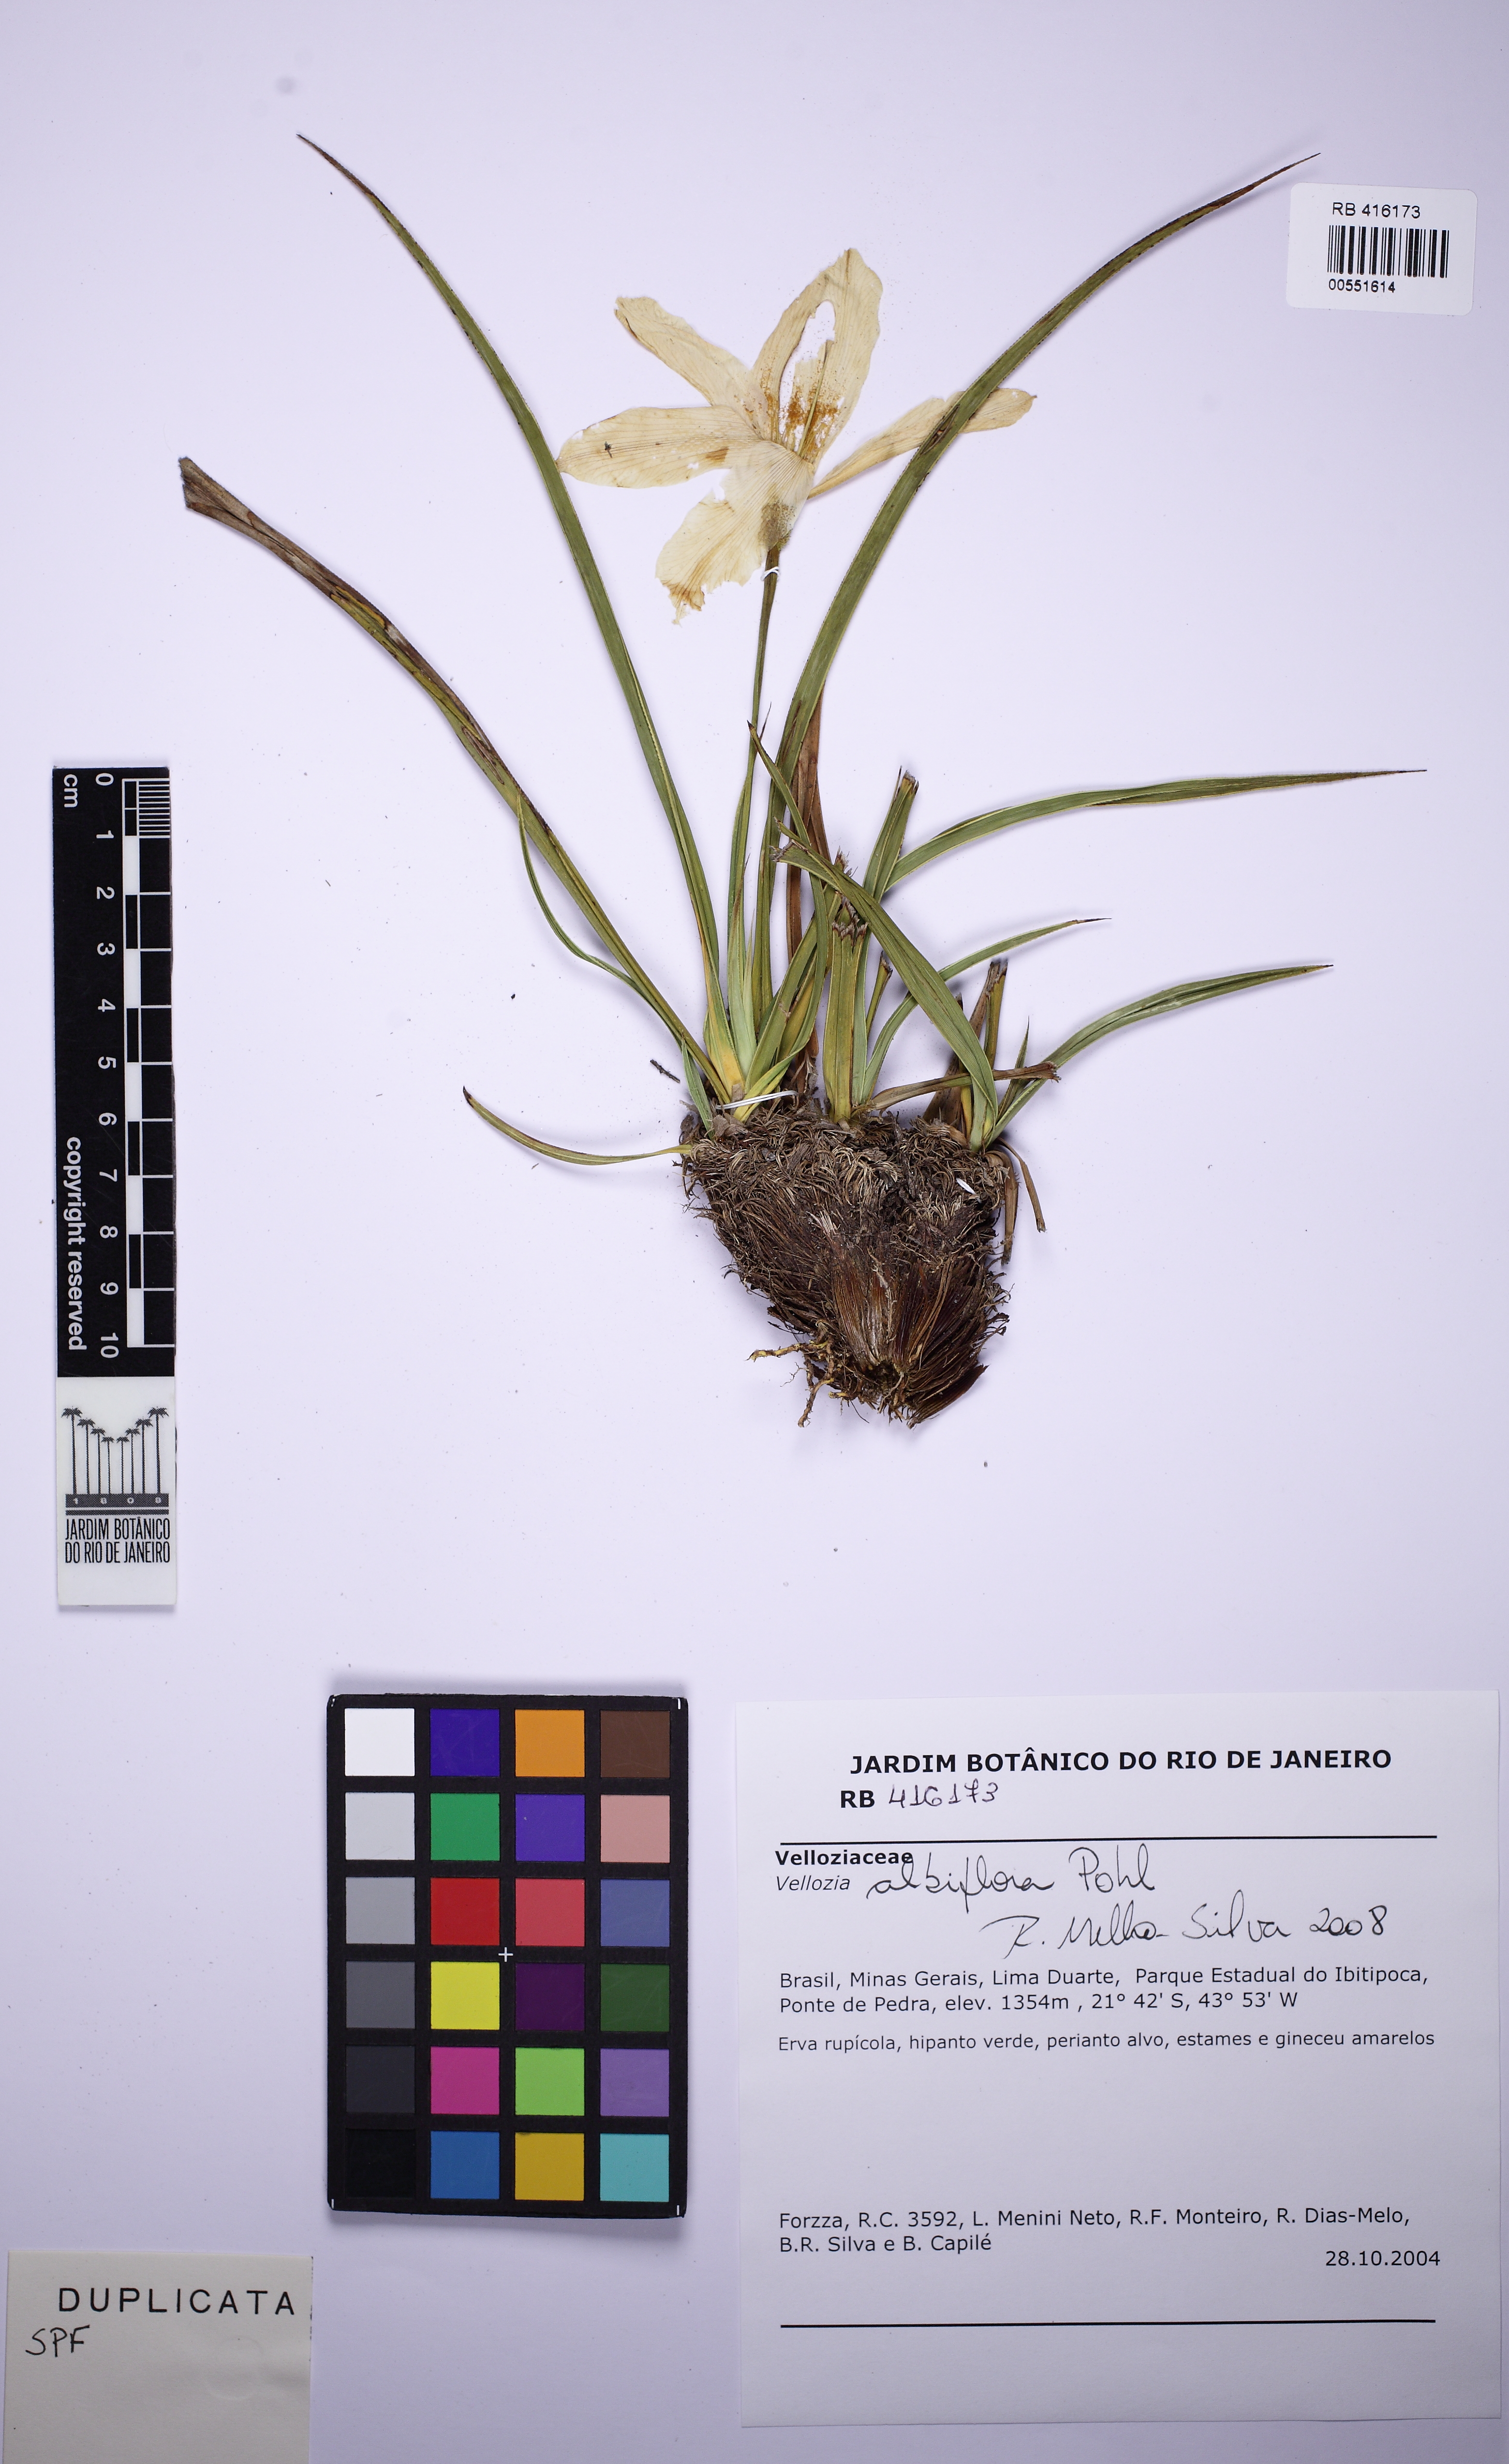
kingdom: Plantae
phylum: Tracheophyta
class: Liliopsida
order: Pandanales
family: Velloziaceae
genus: Vellozia
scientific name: Vellozia albiflora
